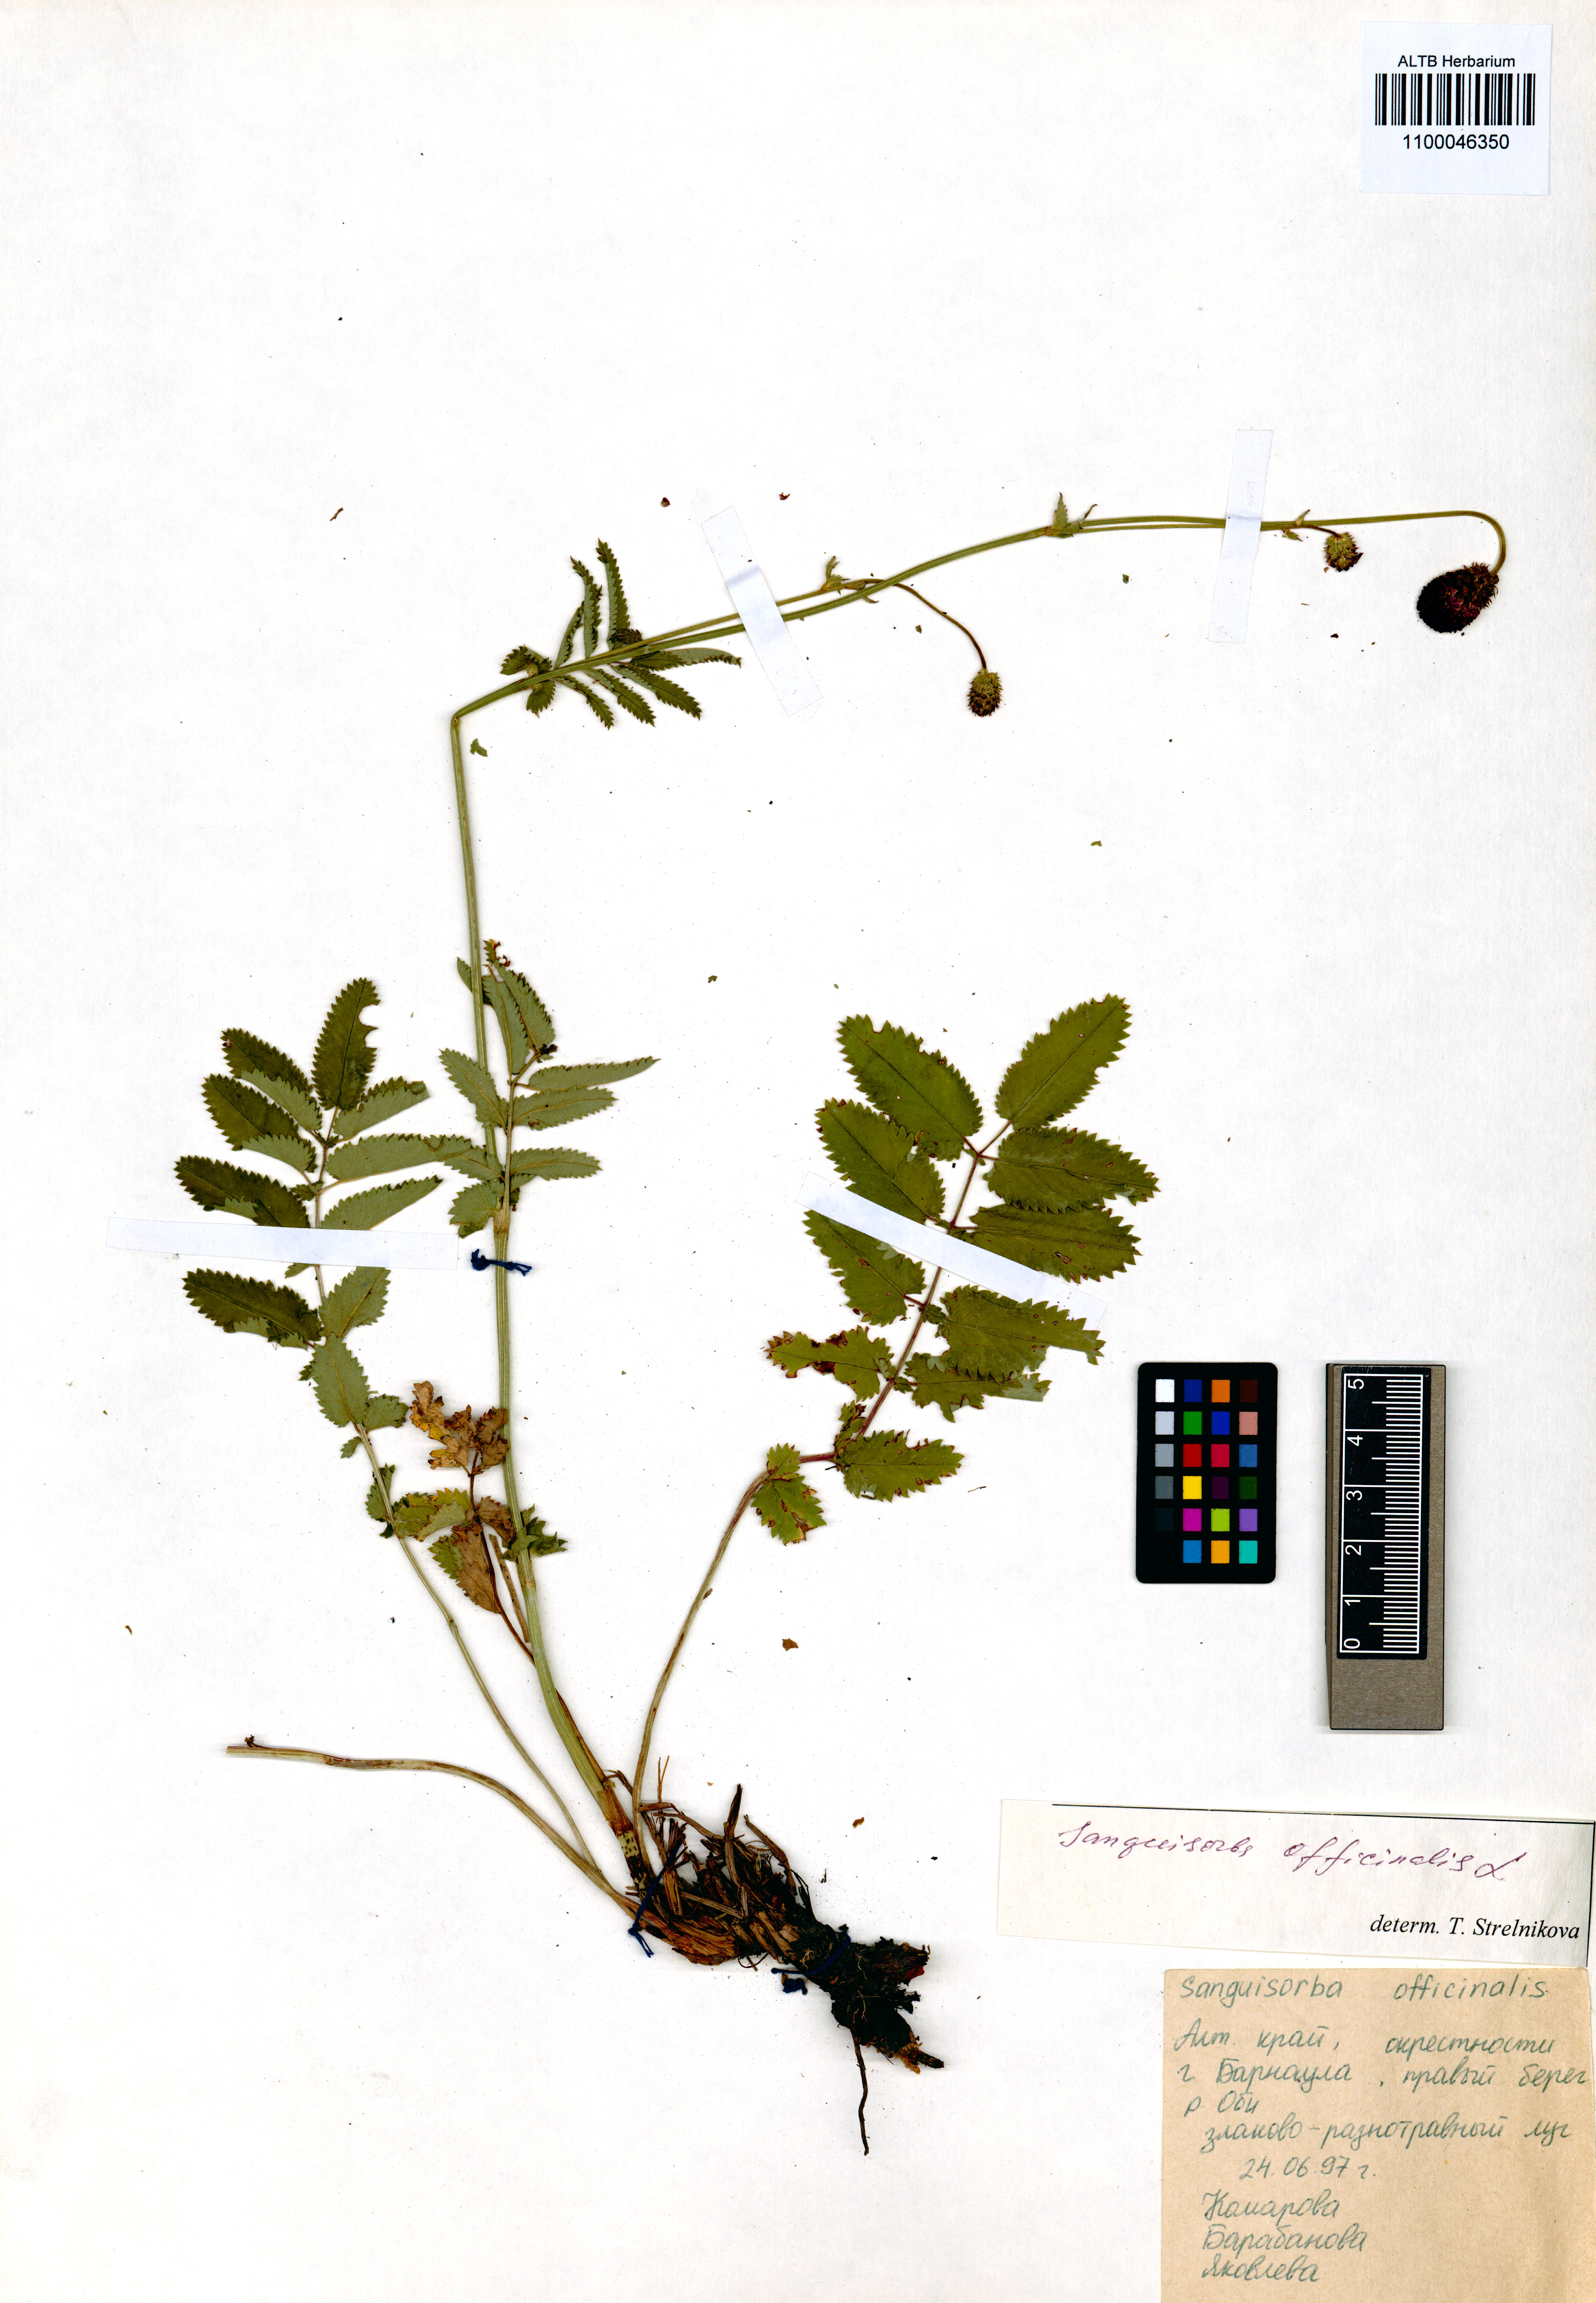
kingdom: Plantae
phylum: Tracheophyta
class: Magnoliopsida
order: Rosales
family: Rosaceae
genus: Sanguisorba
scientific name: Sanguisorba officinalis
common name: Great burnet
